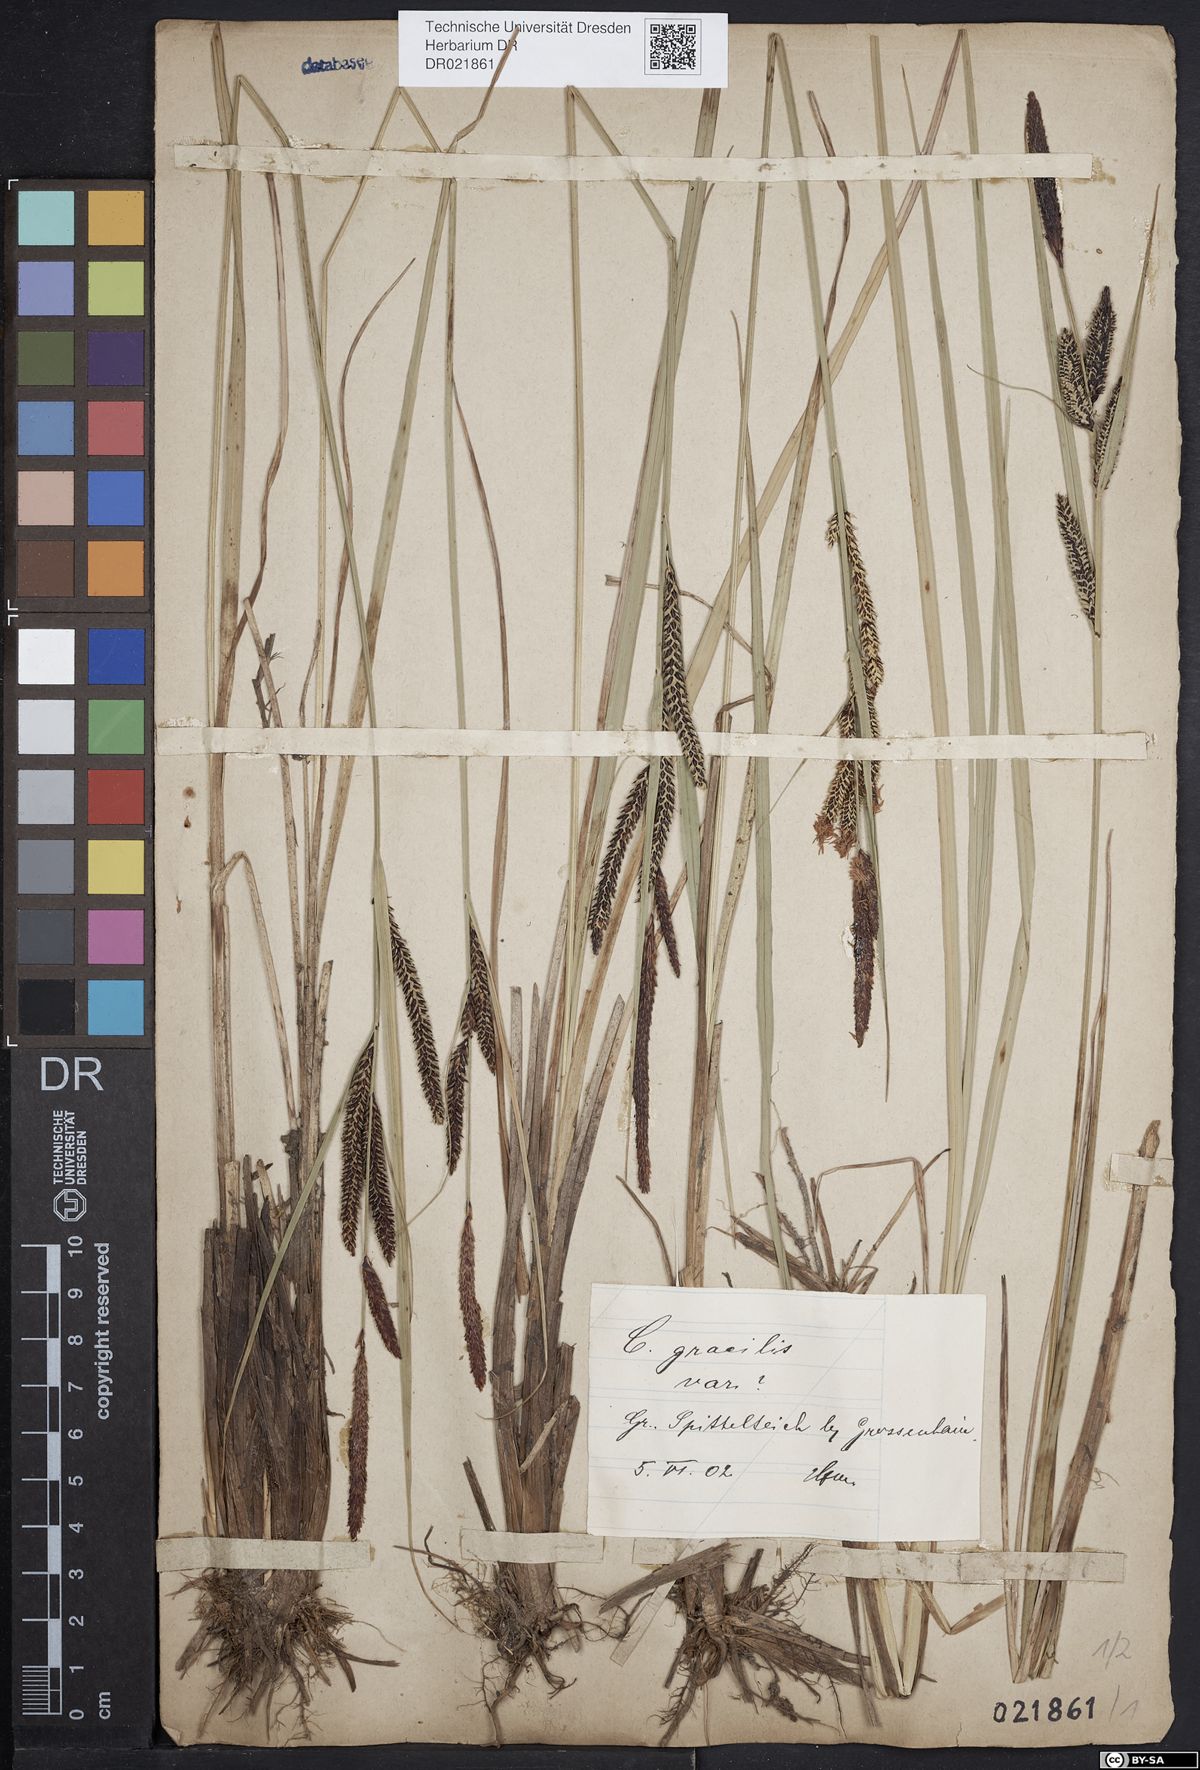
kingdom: Plantae
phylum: Tracheophyta
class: Liliopsida
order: Poales
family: Cyperaceae
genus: Carex
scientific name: Carex acuta
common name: Slender tufted-sedge
